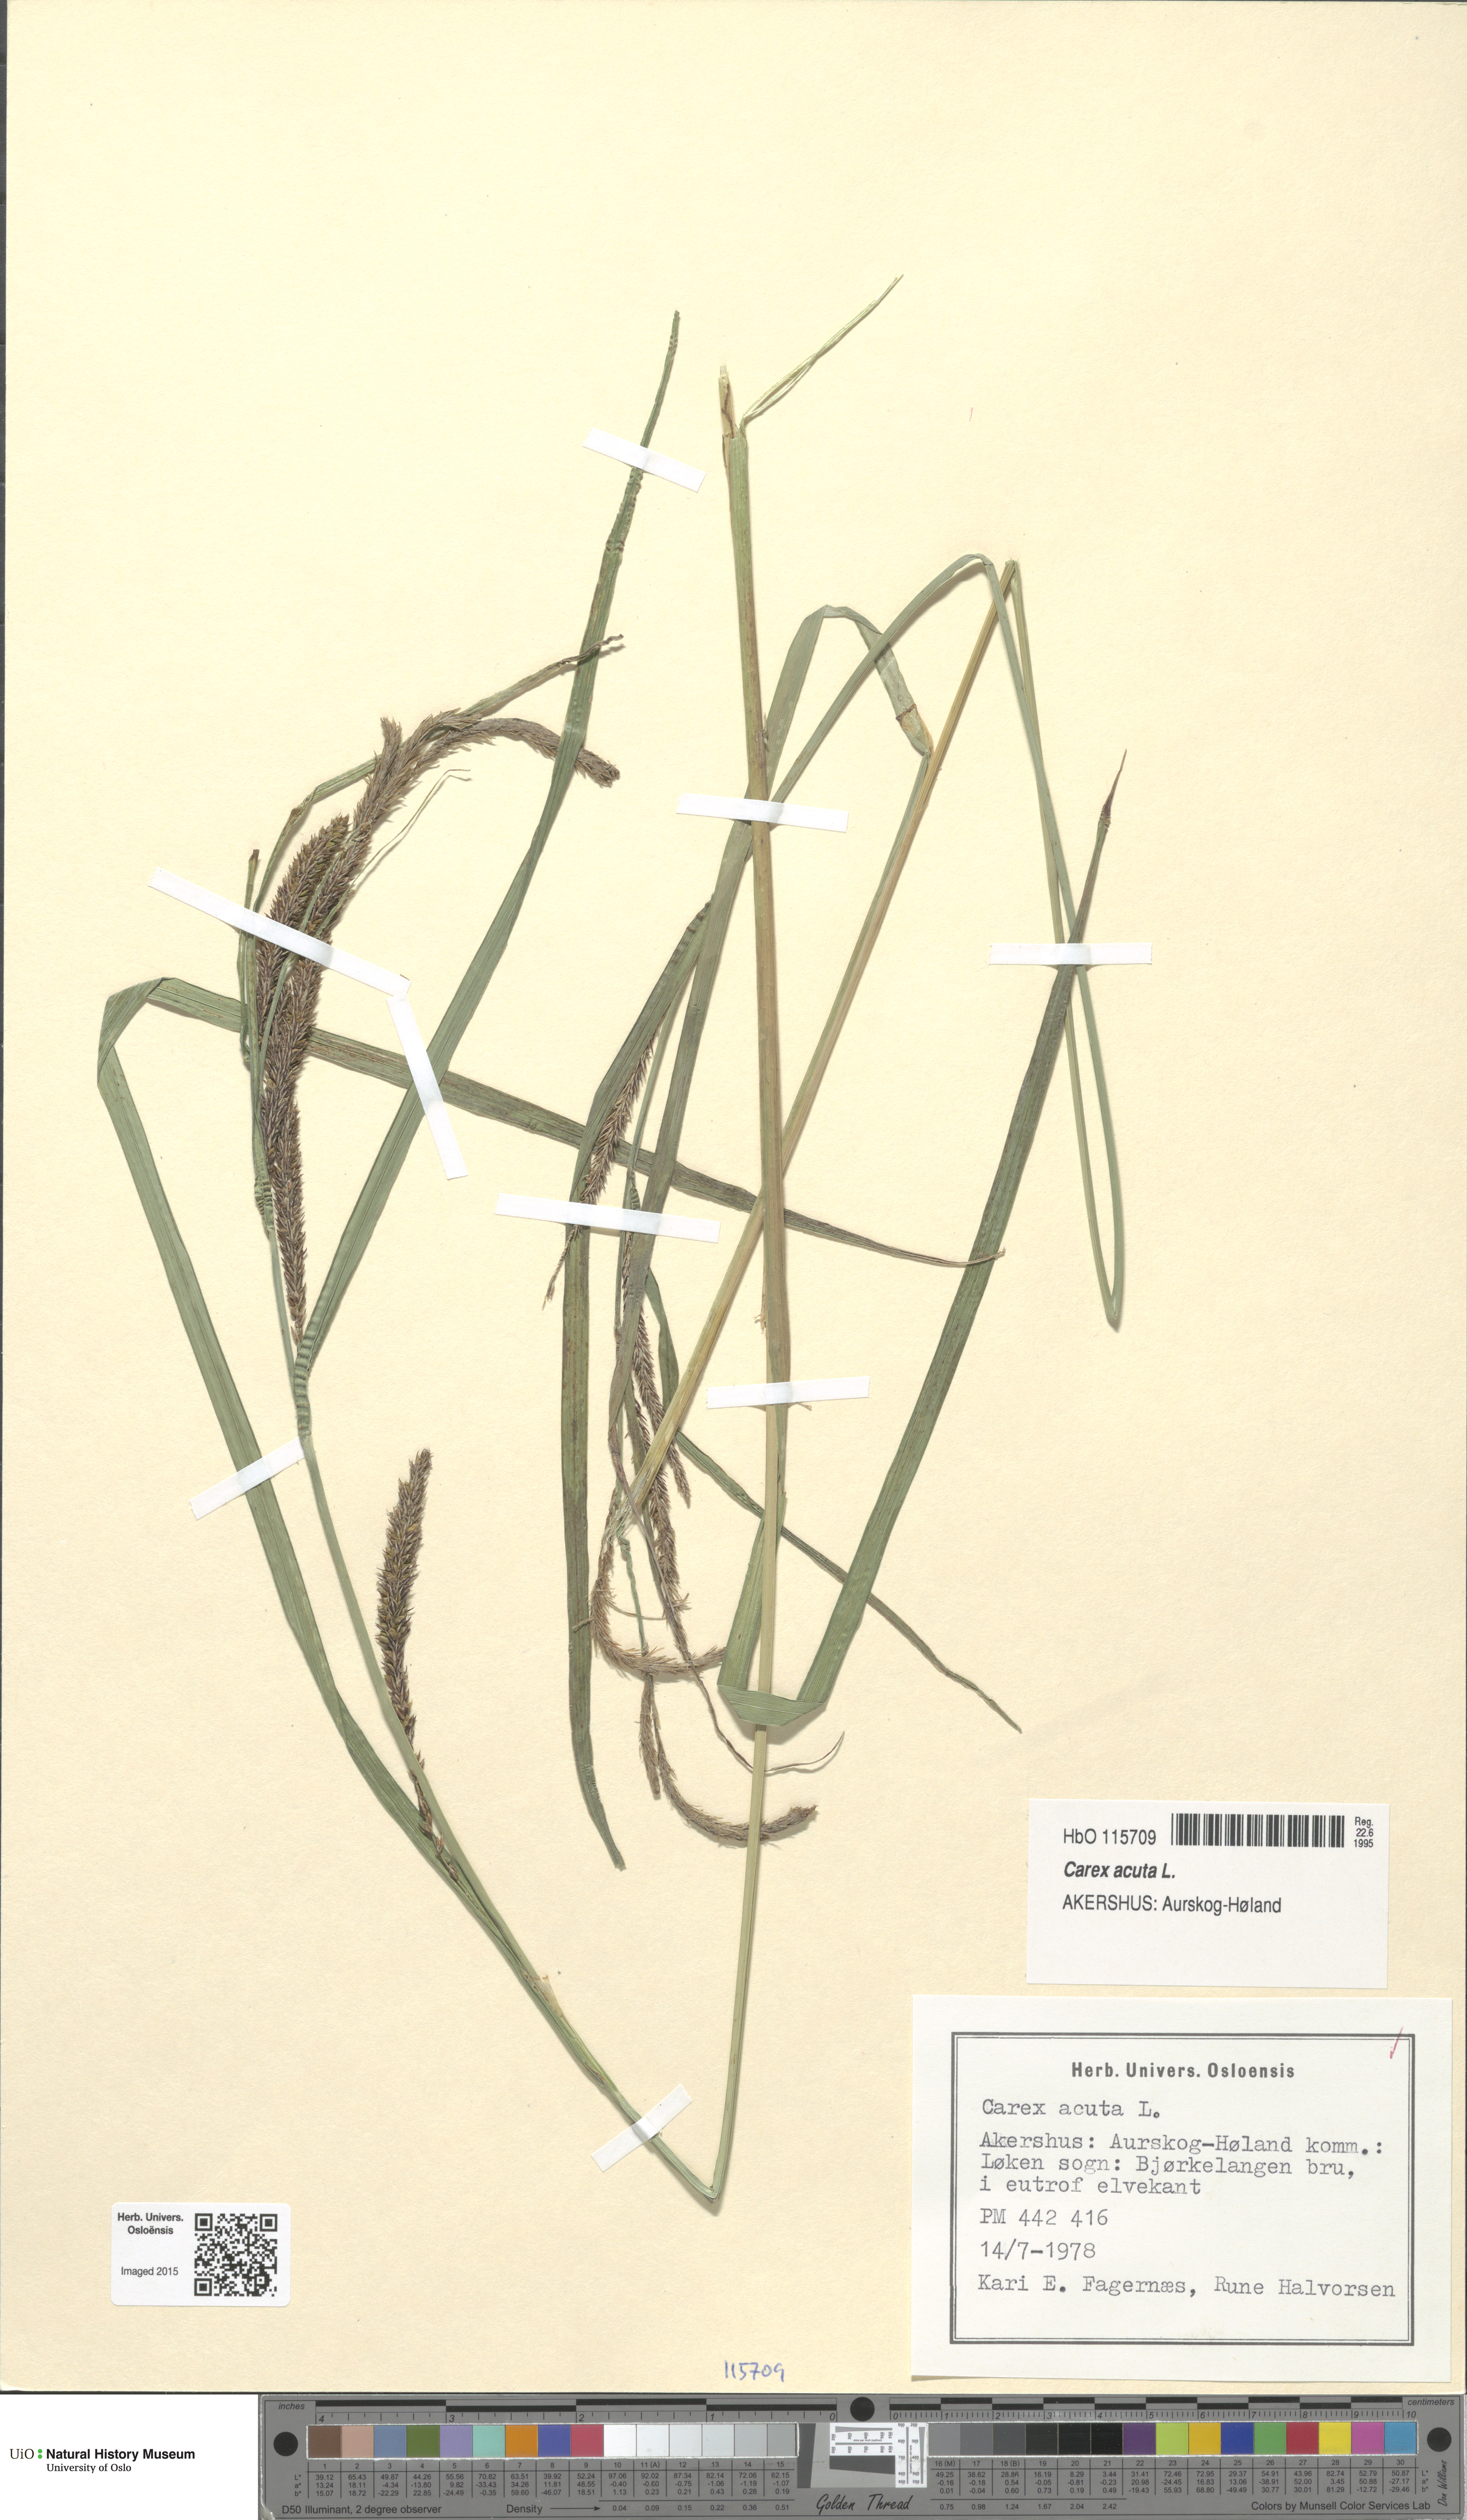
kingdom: Plantae
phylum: Tracheophyta
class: Liliopsida
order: Poales
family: Cyperaceae
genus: Carex
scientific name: Carex acuta
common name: Slender tufted-sedge
